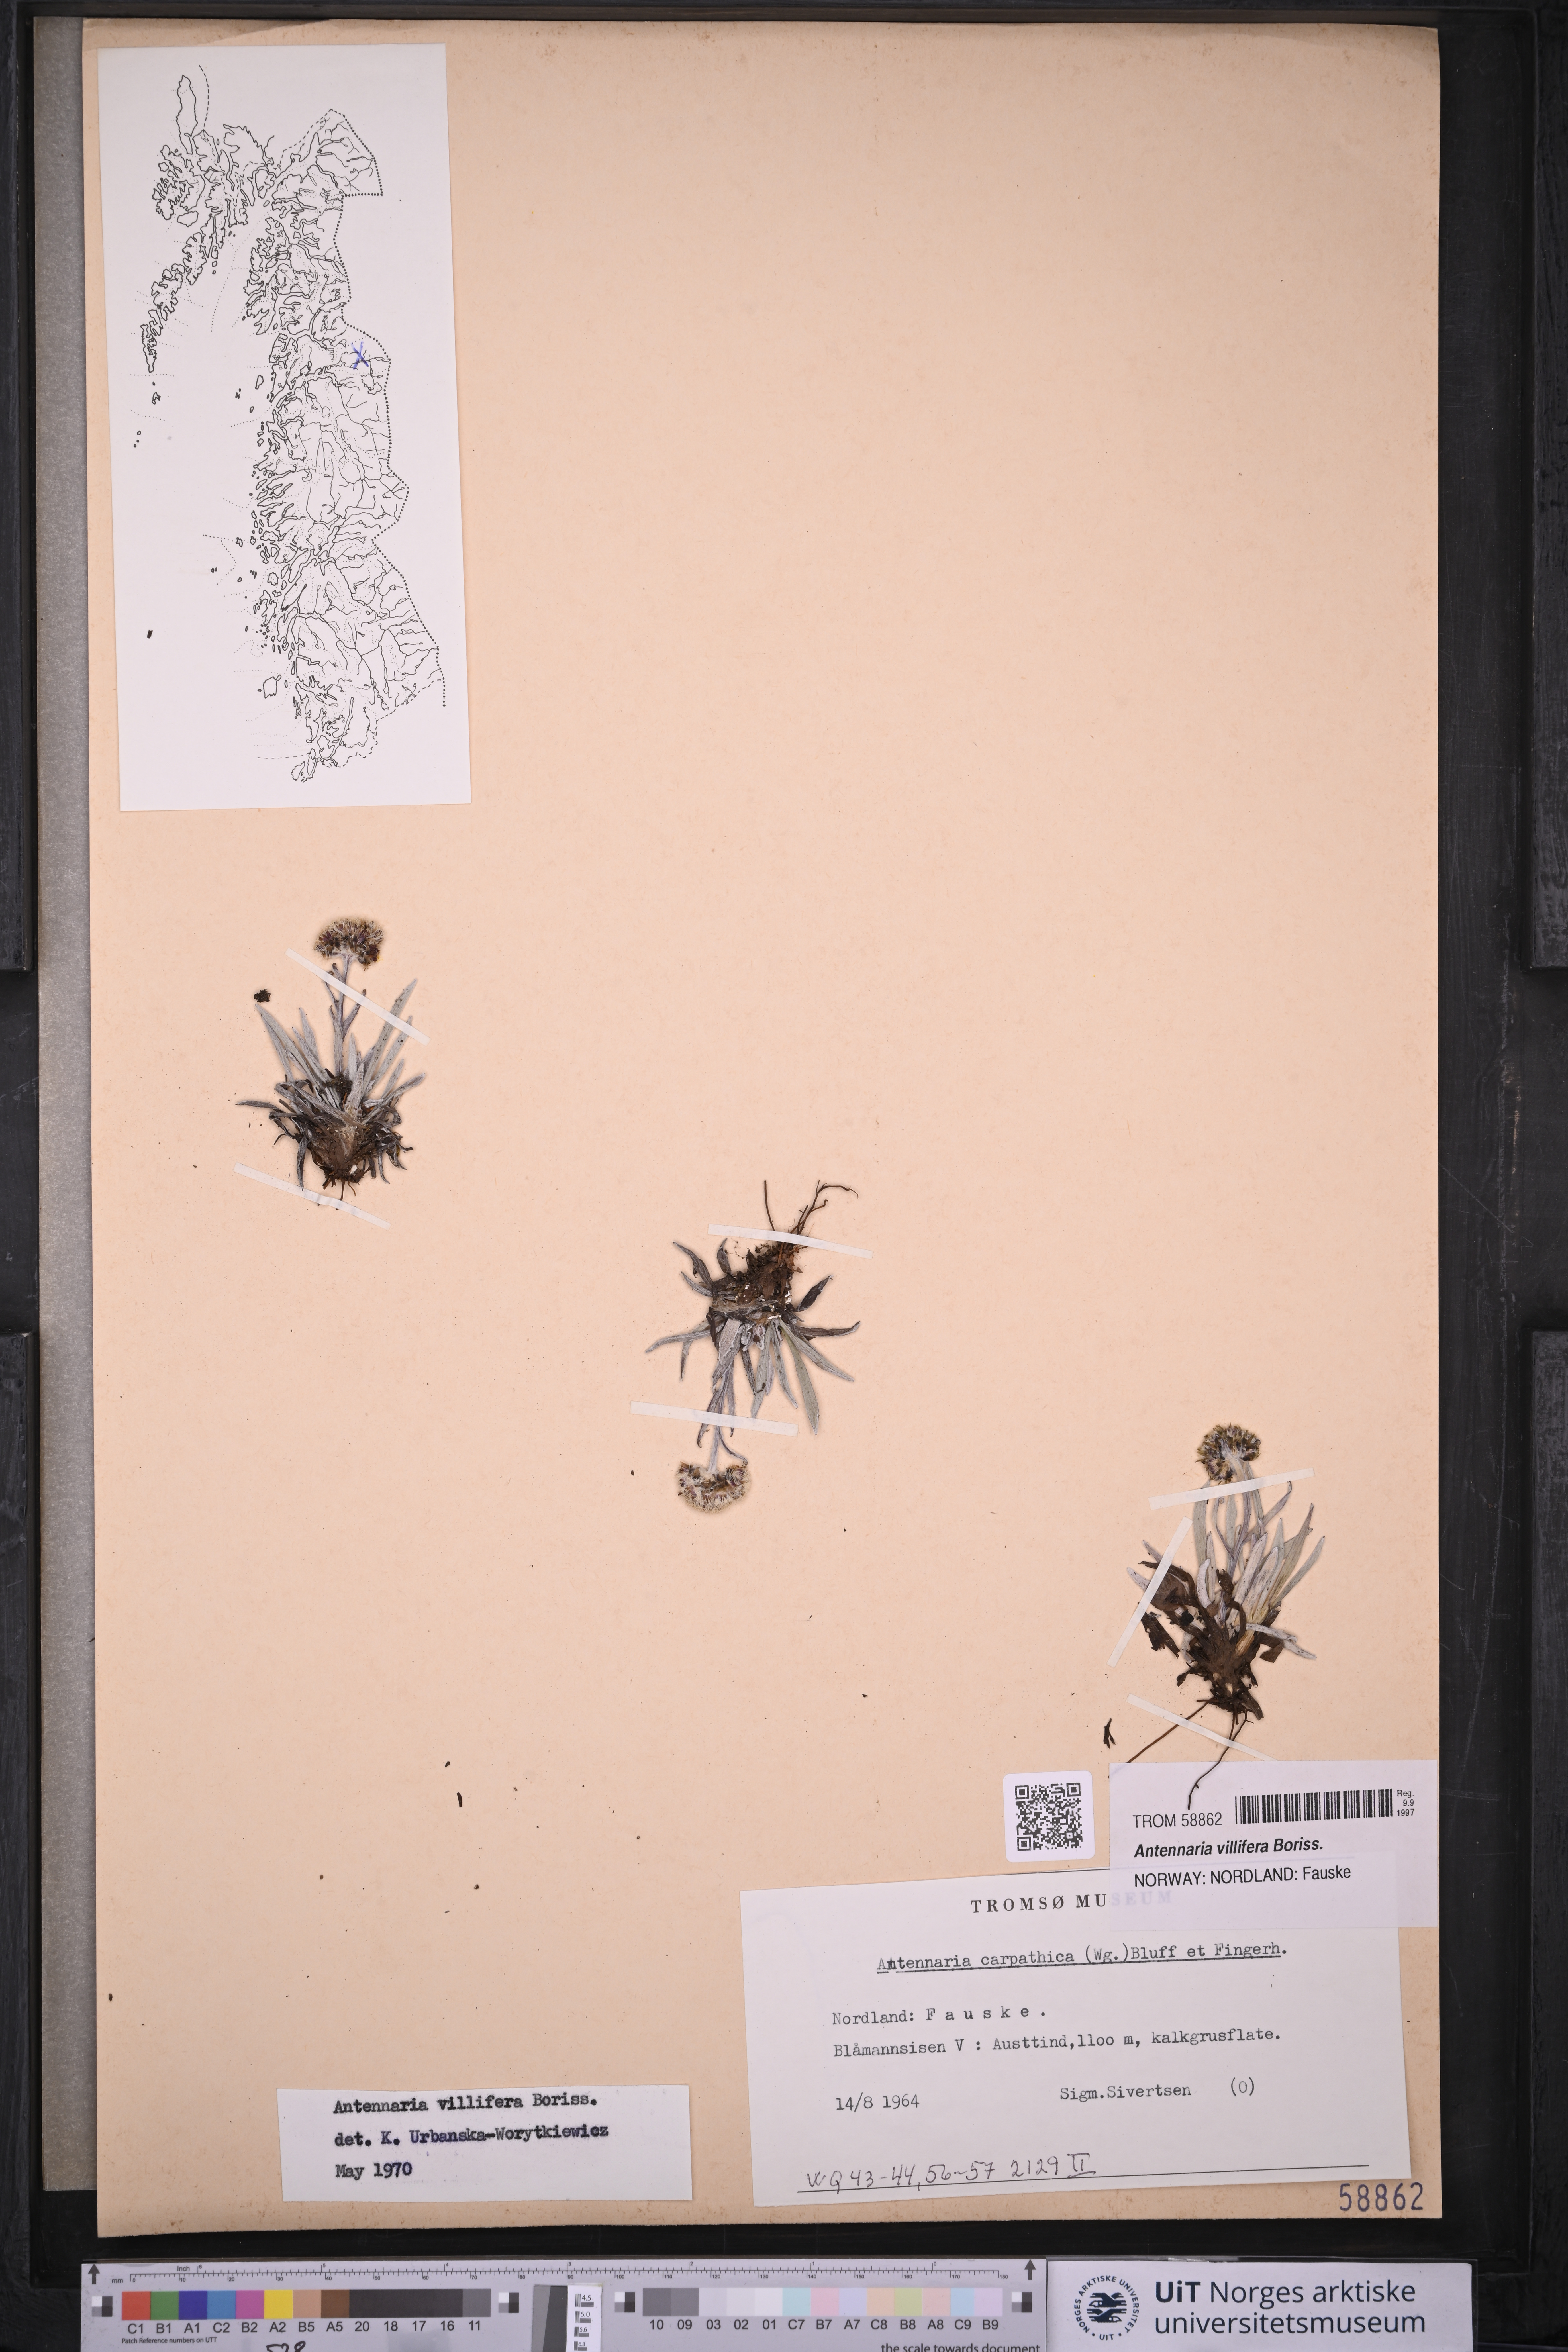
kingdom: Plantae
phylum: Tracheophyta
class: Magnoliopsida
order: Asterales
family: Asteraceae
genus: Antennaria
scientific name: Antennaria lanata
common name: Woolly pussytoes
